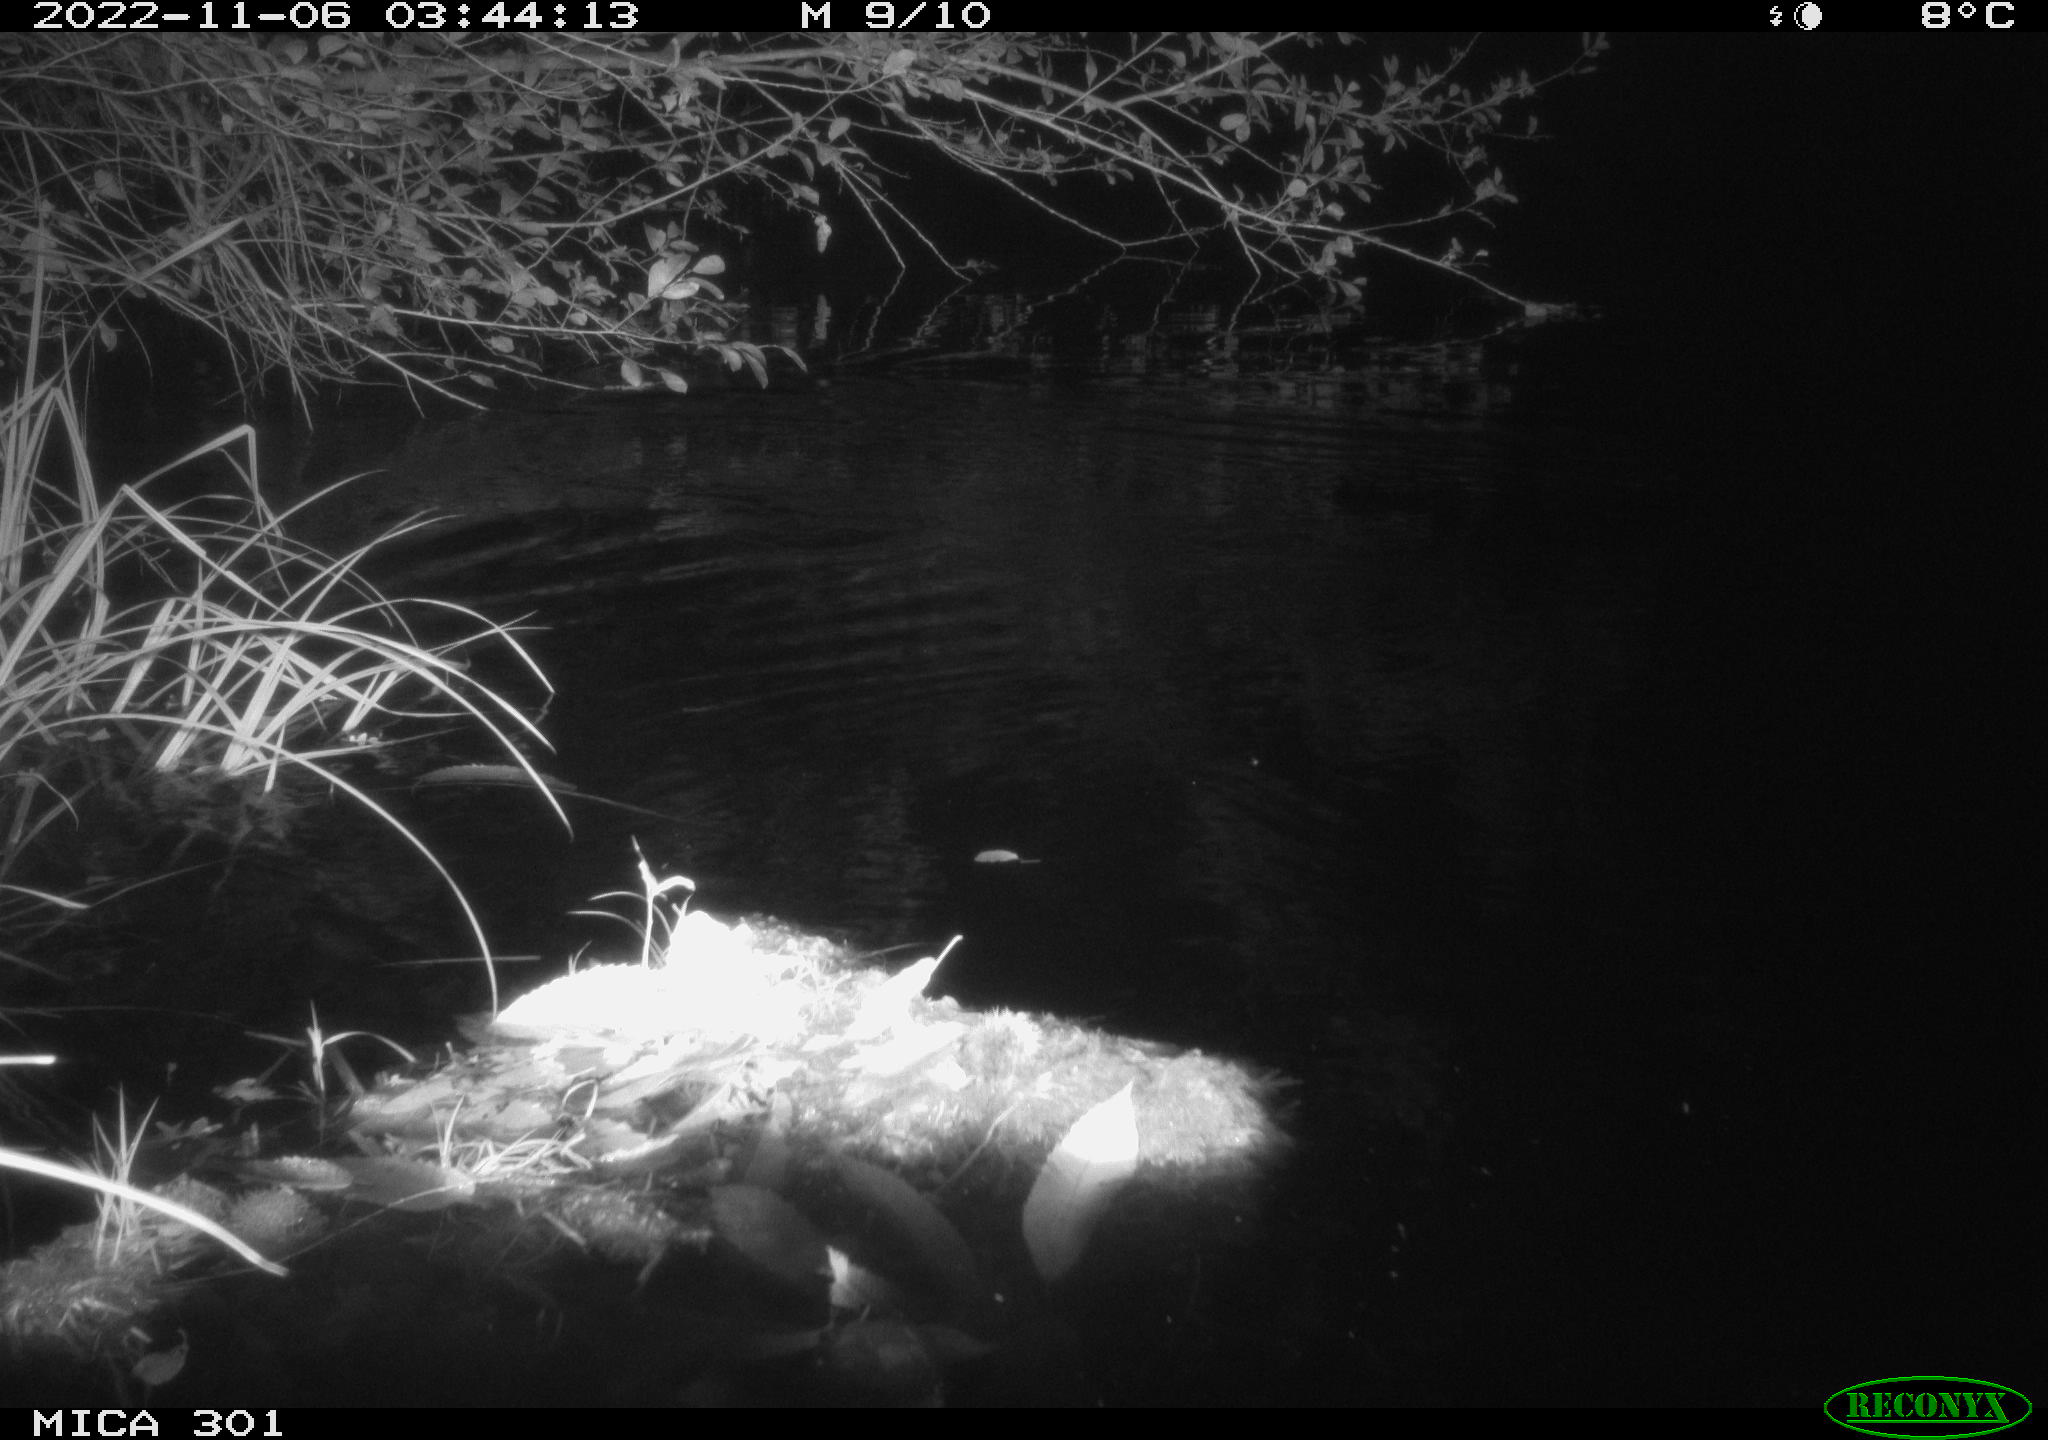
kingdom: Animalia
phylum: Chordata
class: Mammalia
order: Rodentia
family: Castoridae
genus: Castor
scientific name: Castor fiber
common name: Eurasian beaver
